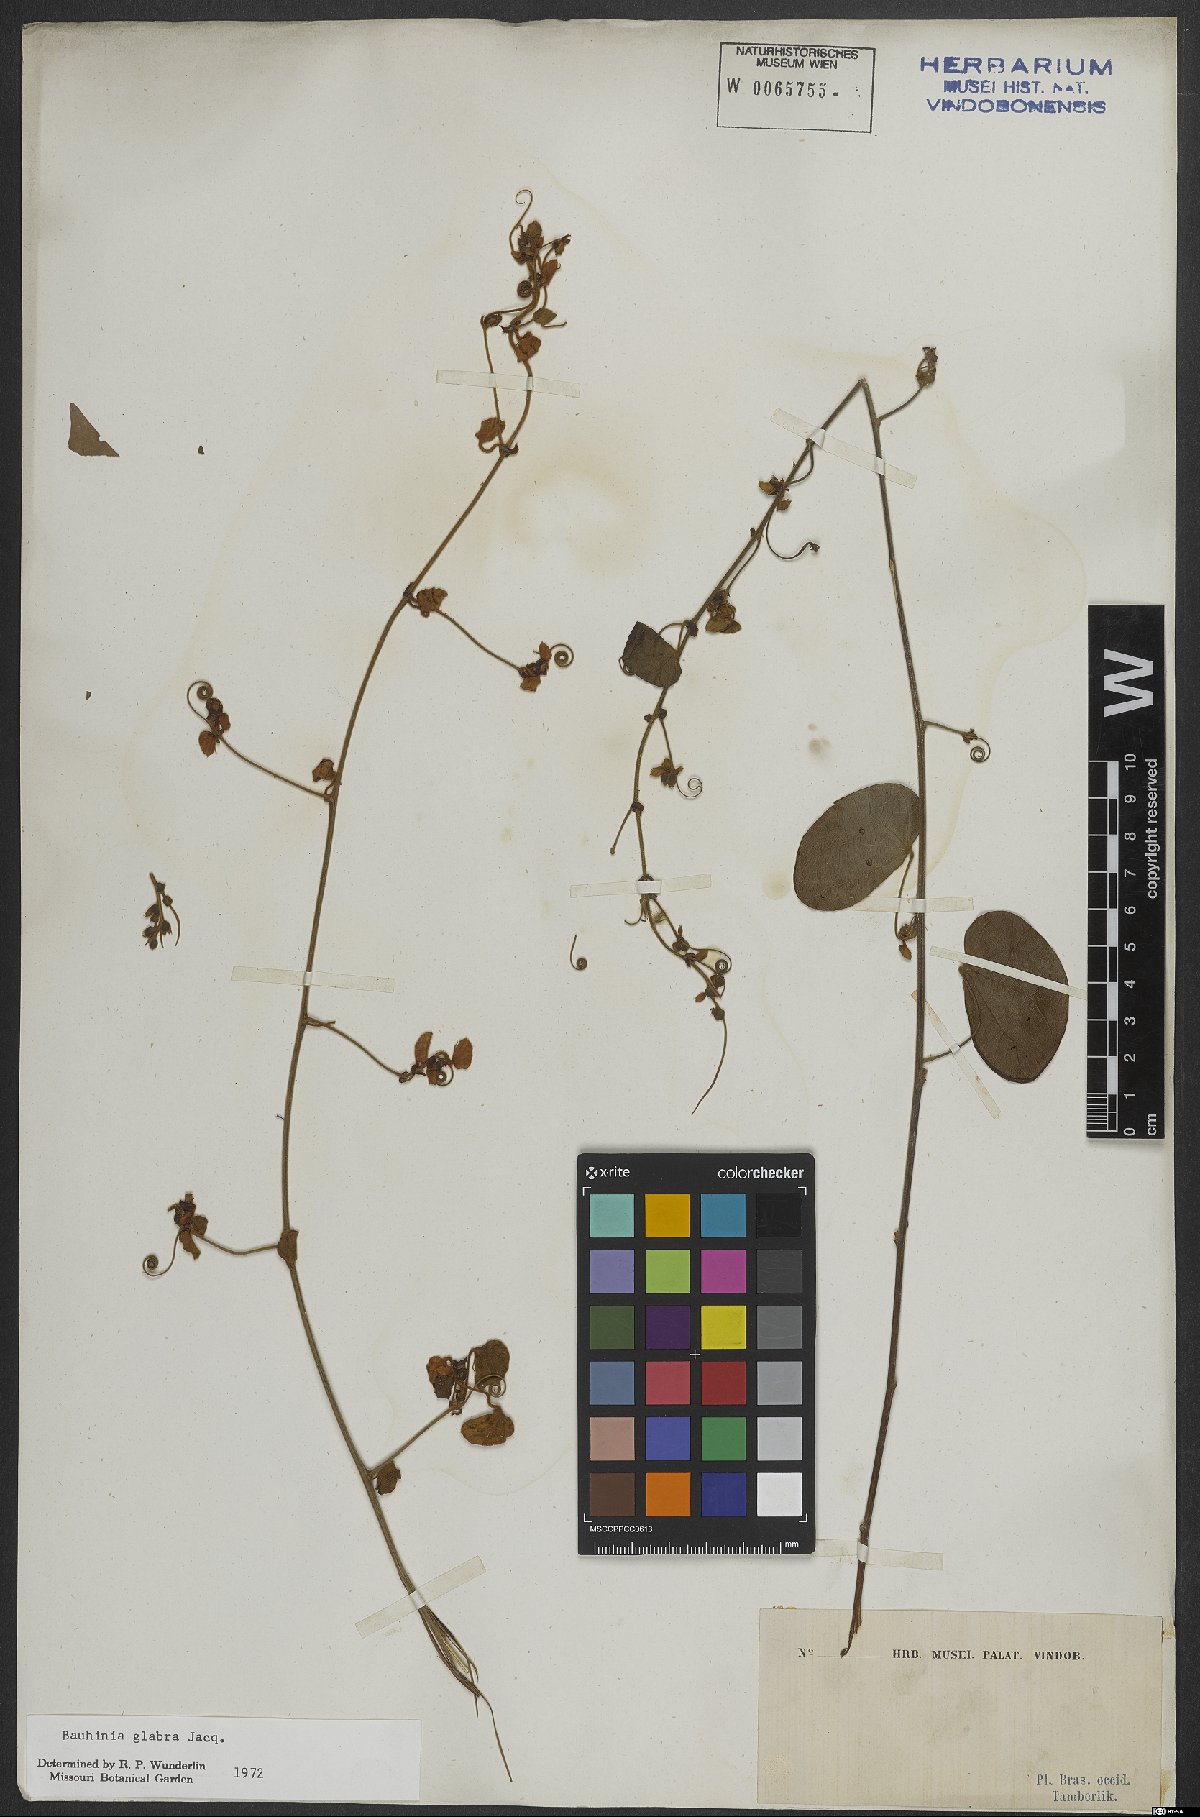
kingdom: Plantae
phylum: Tracheophyta
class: Magnoliopsida
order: Fabales
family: Fabaceae
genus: Schnella
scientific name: Schnella glabra
